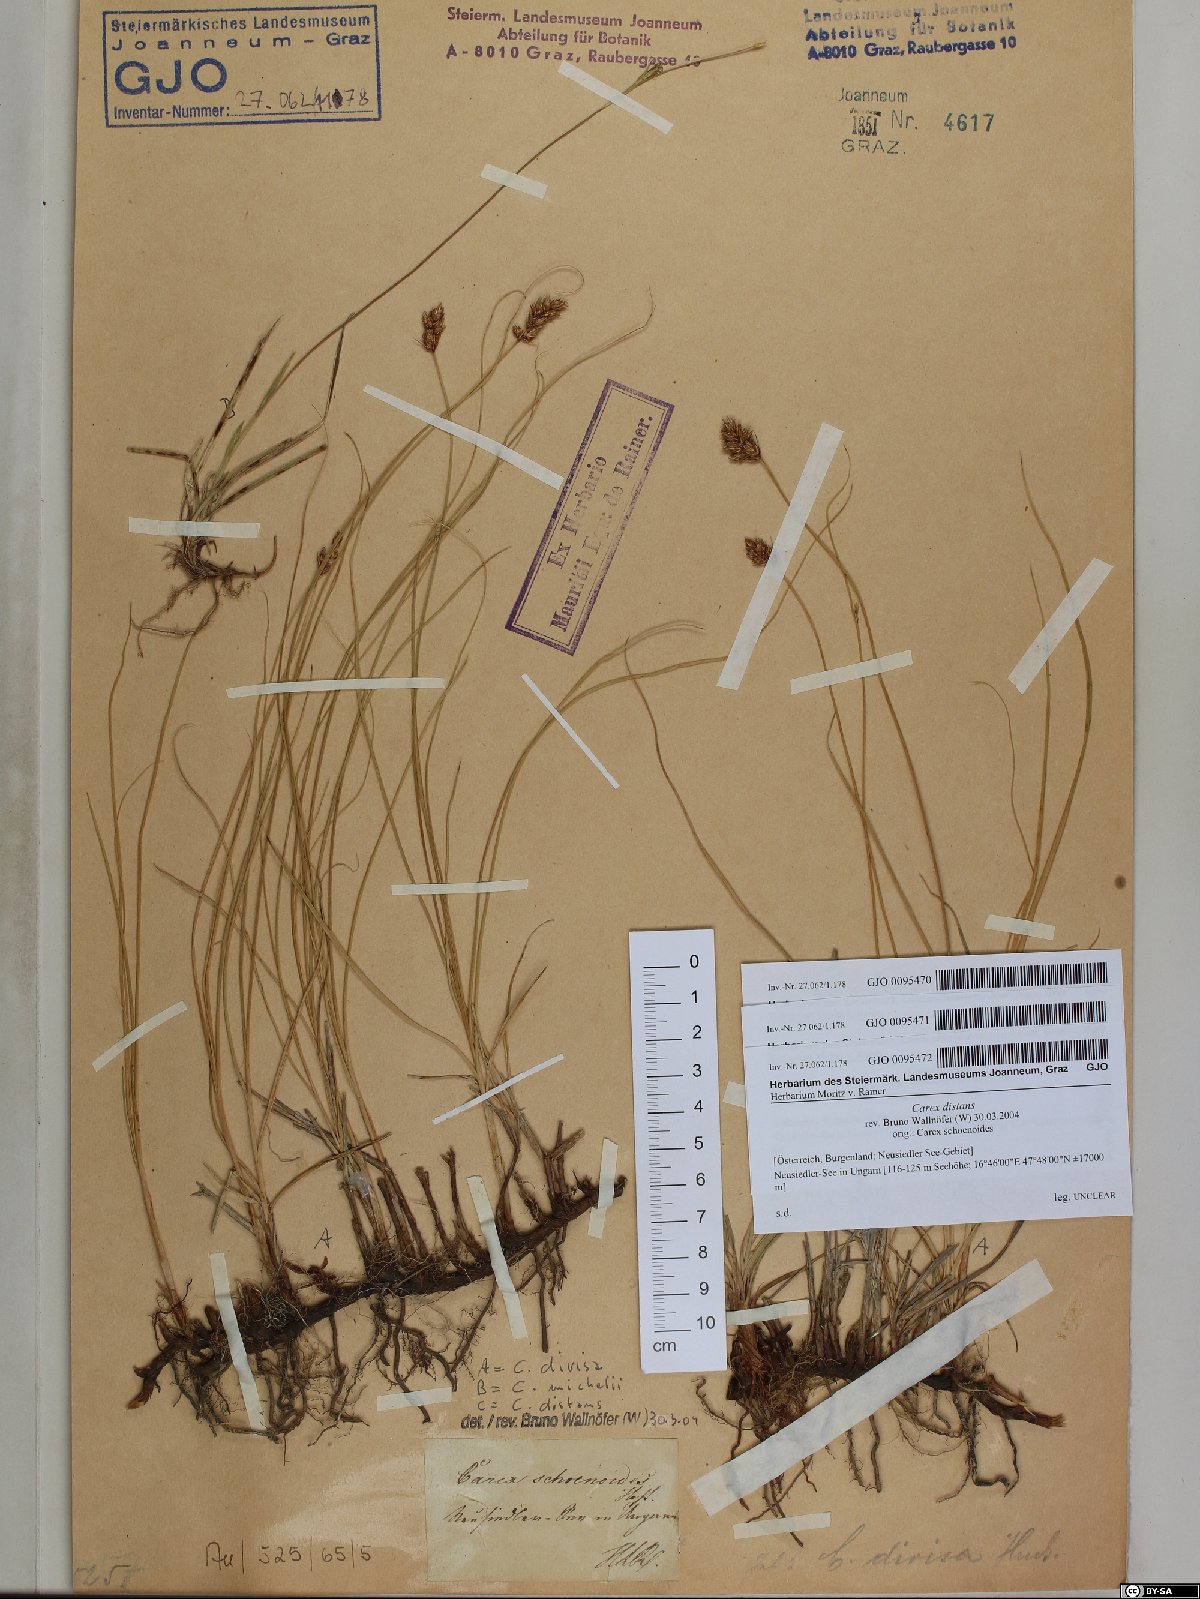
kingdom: Plantae
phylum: Tracheophyta
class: Liliopsida
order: Poales
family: Cyperaceae
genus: Carex
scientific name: Carex distans
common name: Distant sedge
